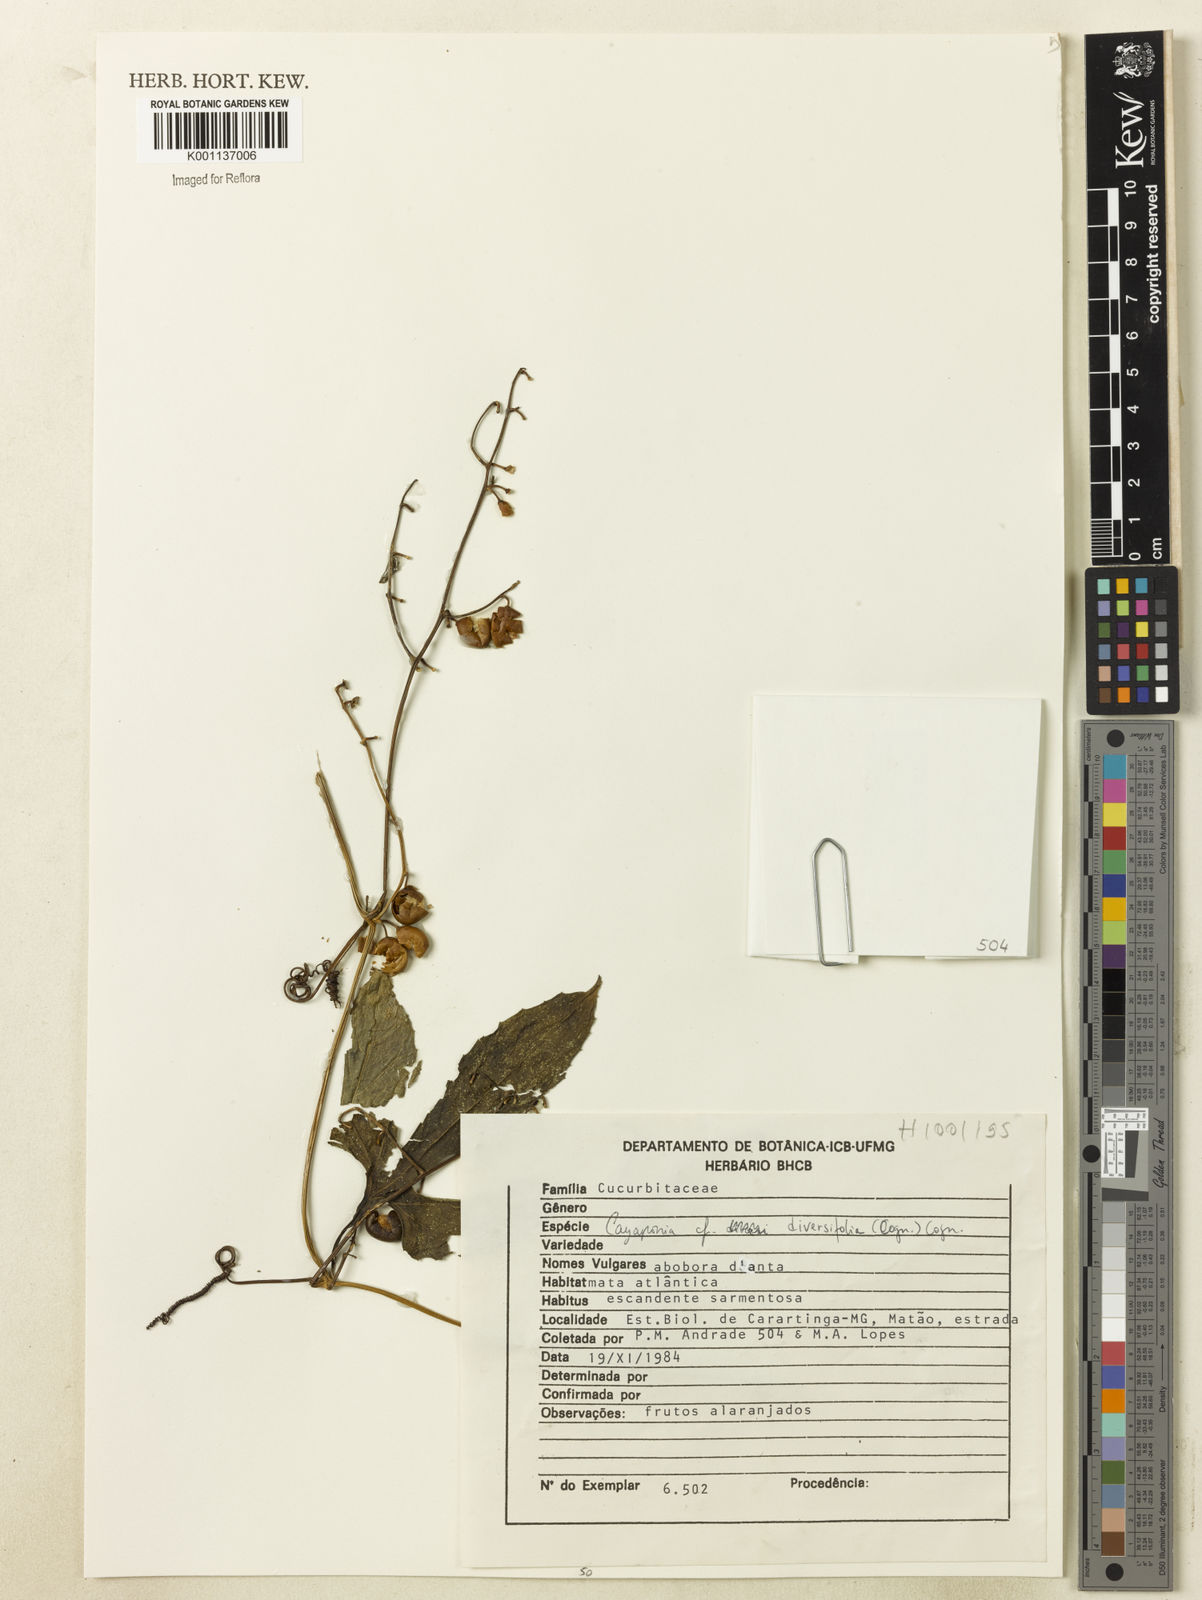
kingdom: Plantae
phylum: Tracheophyta
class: Magnoliopsida
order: Cucurbitales
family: Cucurbitaceae
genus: Cayaponia
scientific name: Cayaponia diversifolia
